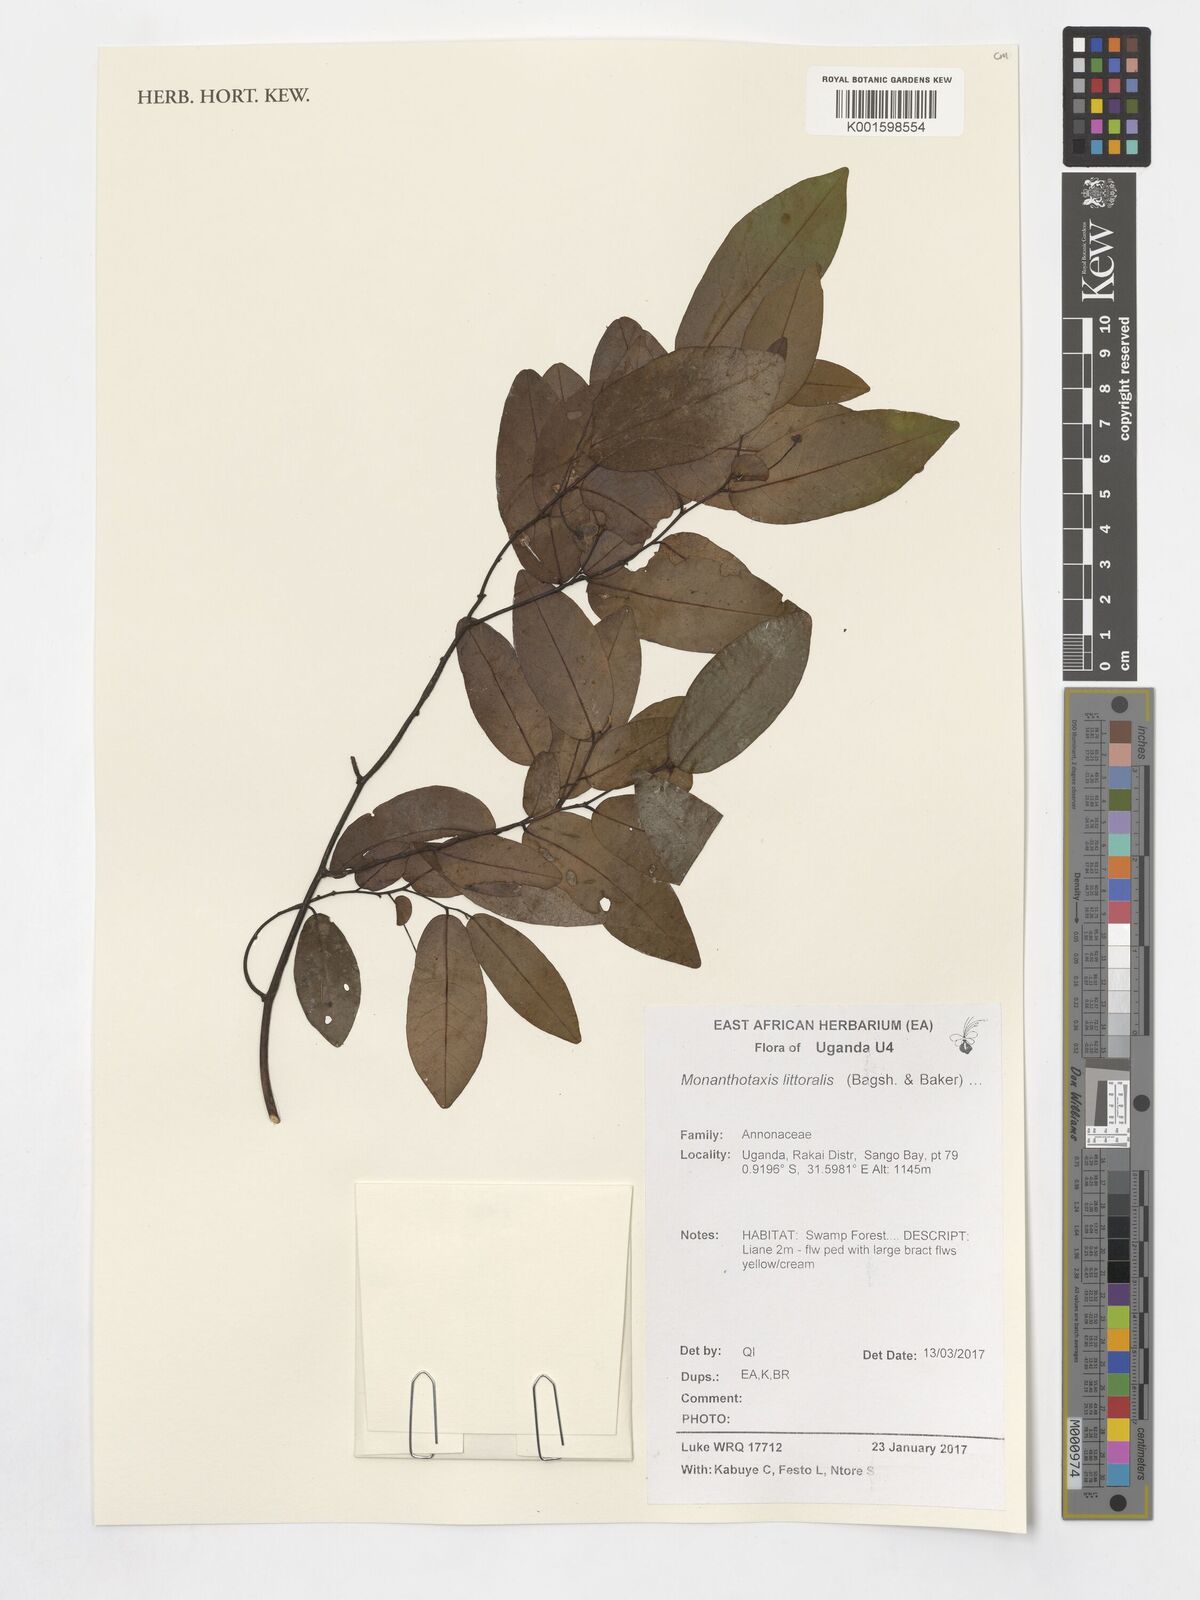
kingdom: Plantae
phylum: Tracheophyta
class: Magnoliopsida
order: Magnoliales
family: Annonaceae
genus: Monanthotaxis
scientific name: Monanthotaxis littoralis
